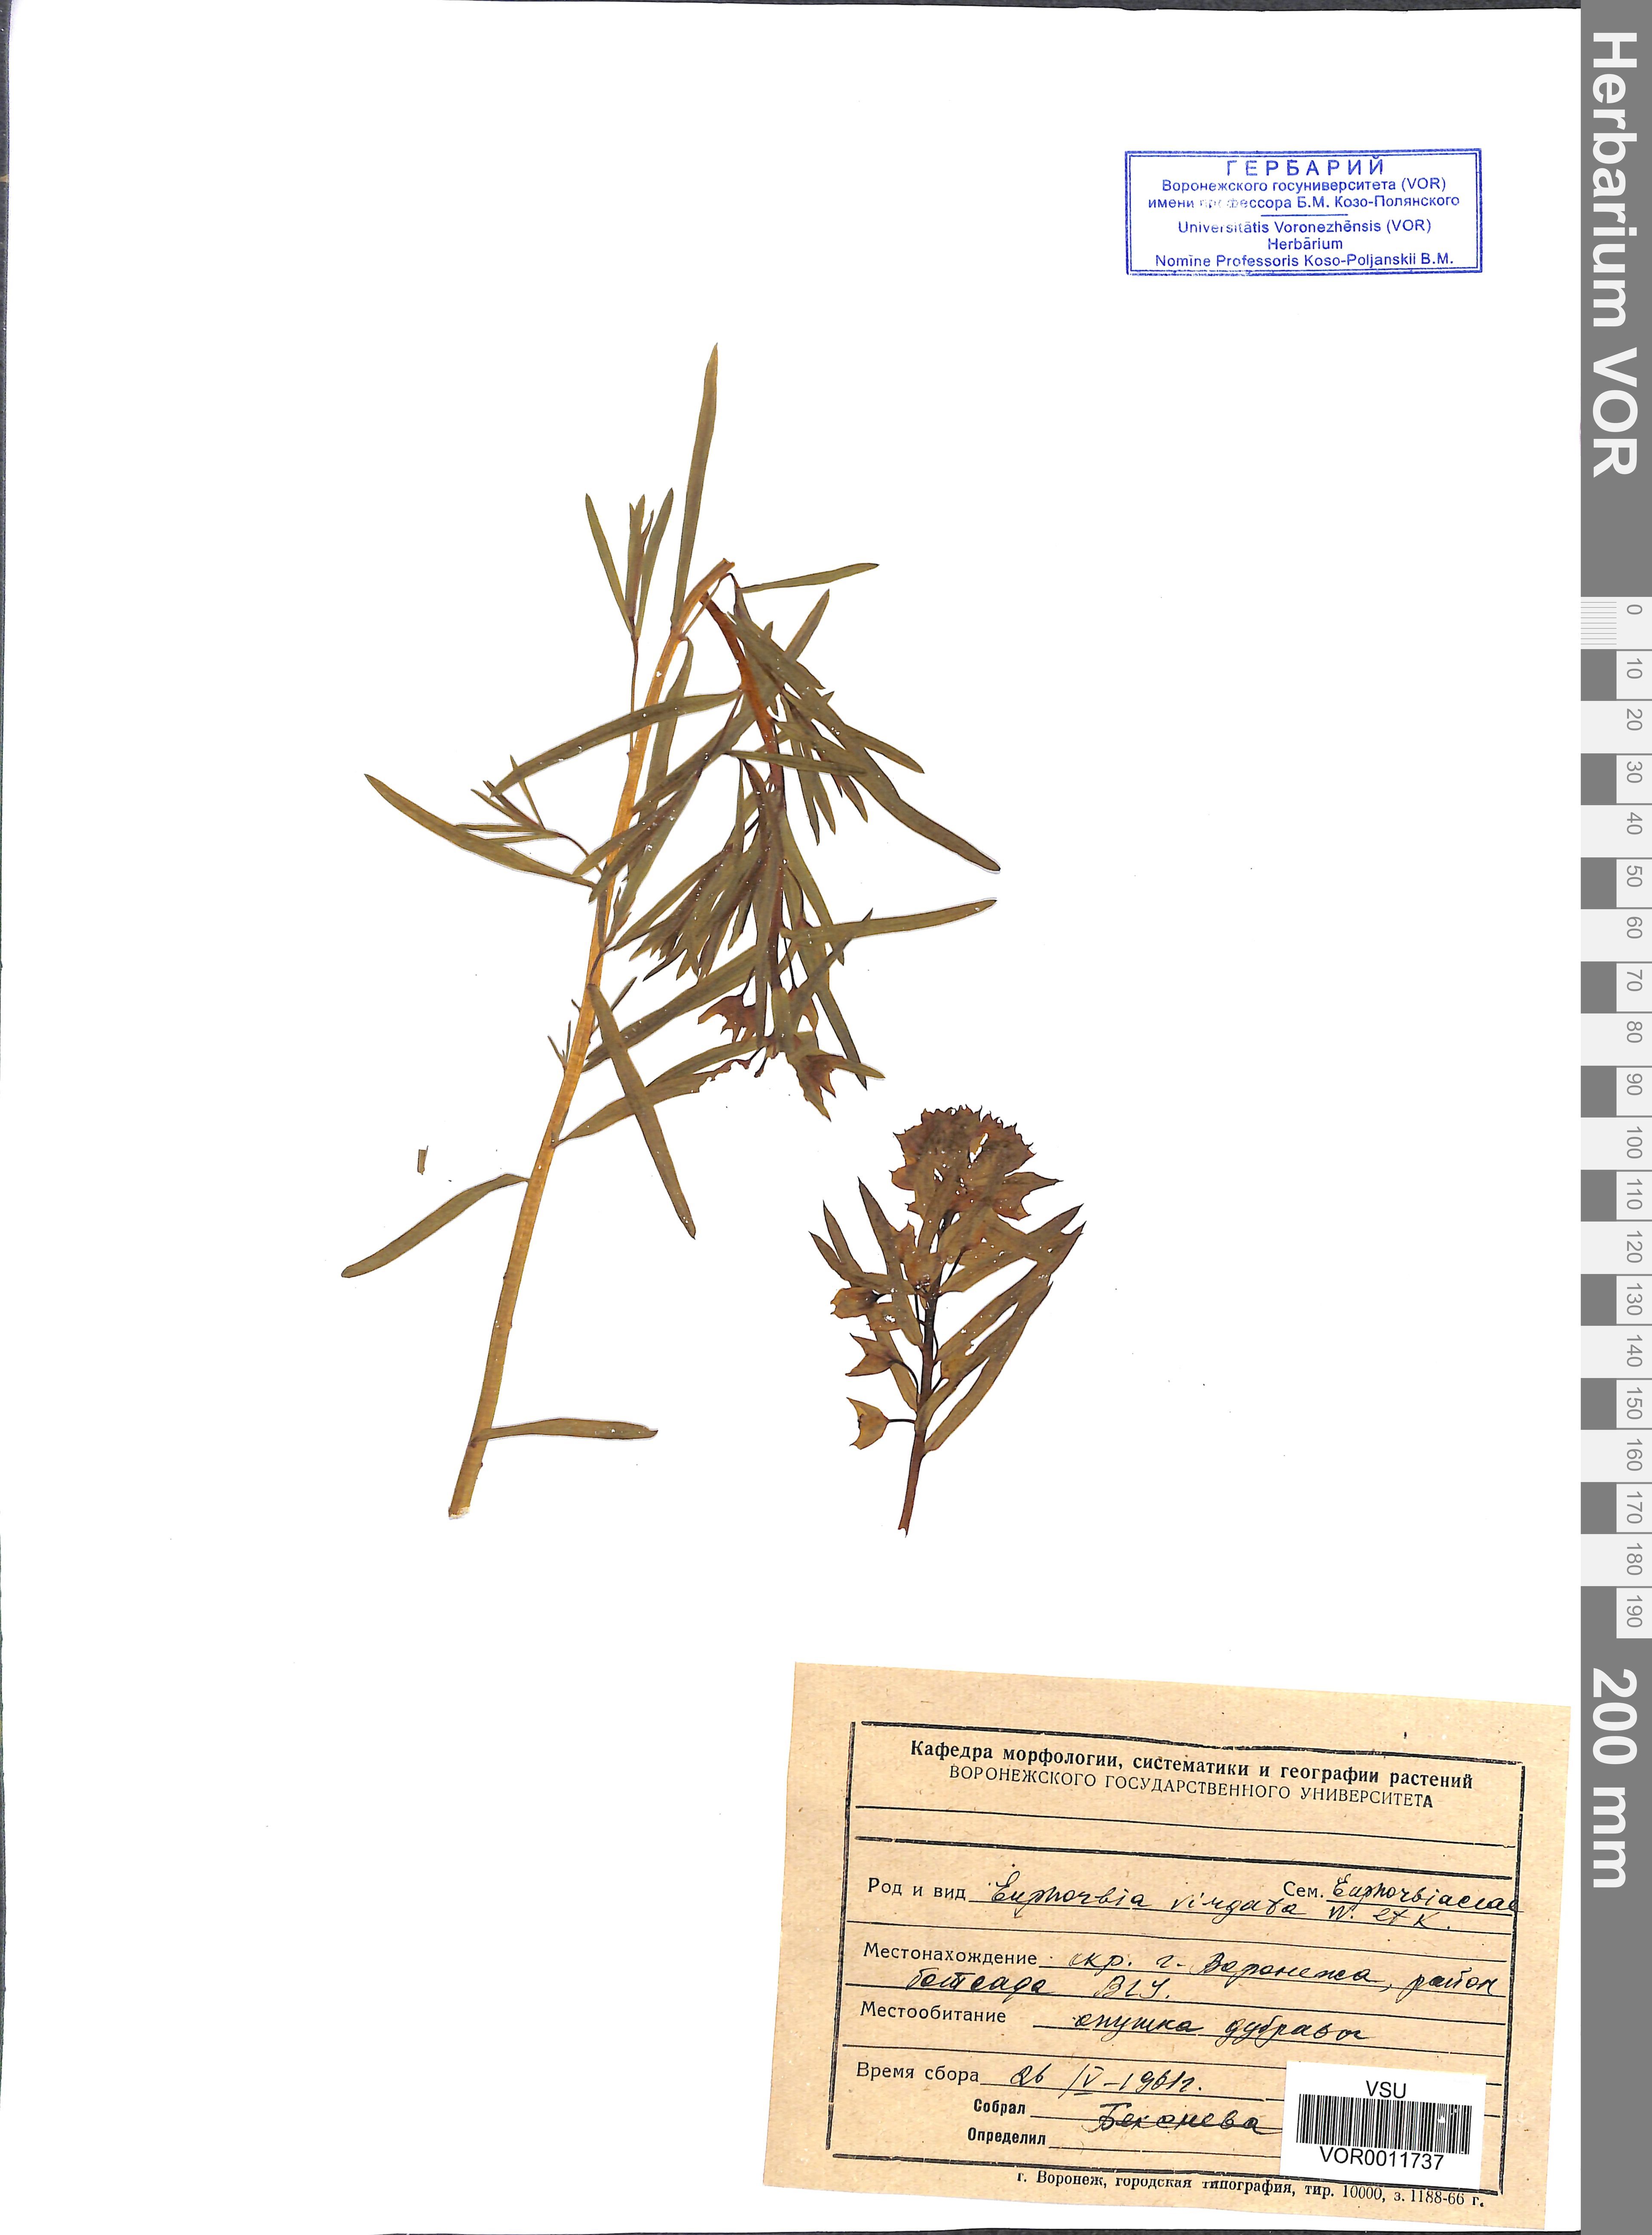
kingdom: Plantae
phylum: Tracheophyta
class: Magnoliopsida
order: Malpighiales
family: Euphorbiaceae
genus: Euphorbia
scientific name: Euphorbia virgata
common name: Leafy spurge
